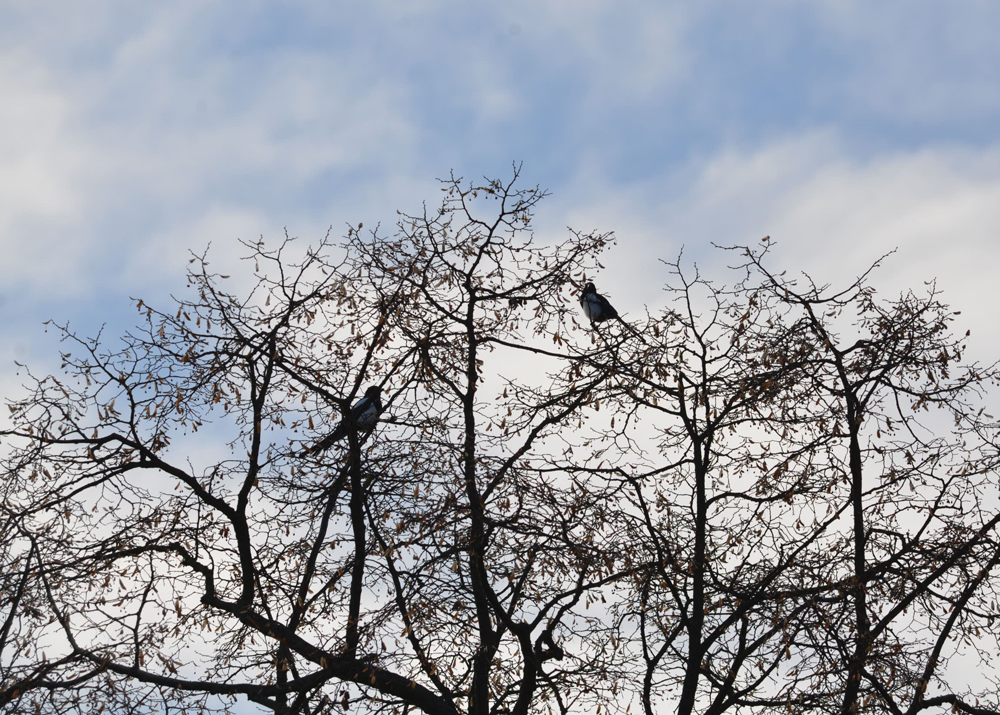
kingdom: Animalia
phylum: Chordata
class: Aves
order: Passeriformes
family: Corvidae
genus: Pica
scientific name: Pica pica
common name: Eurasian magpie
